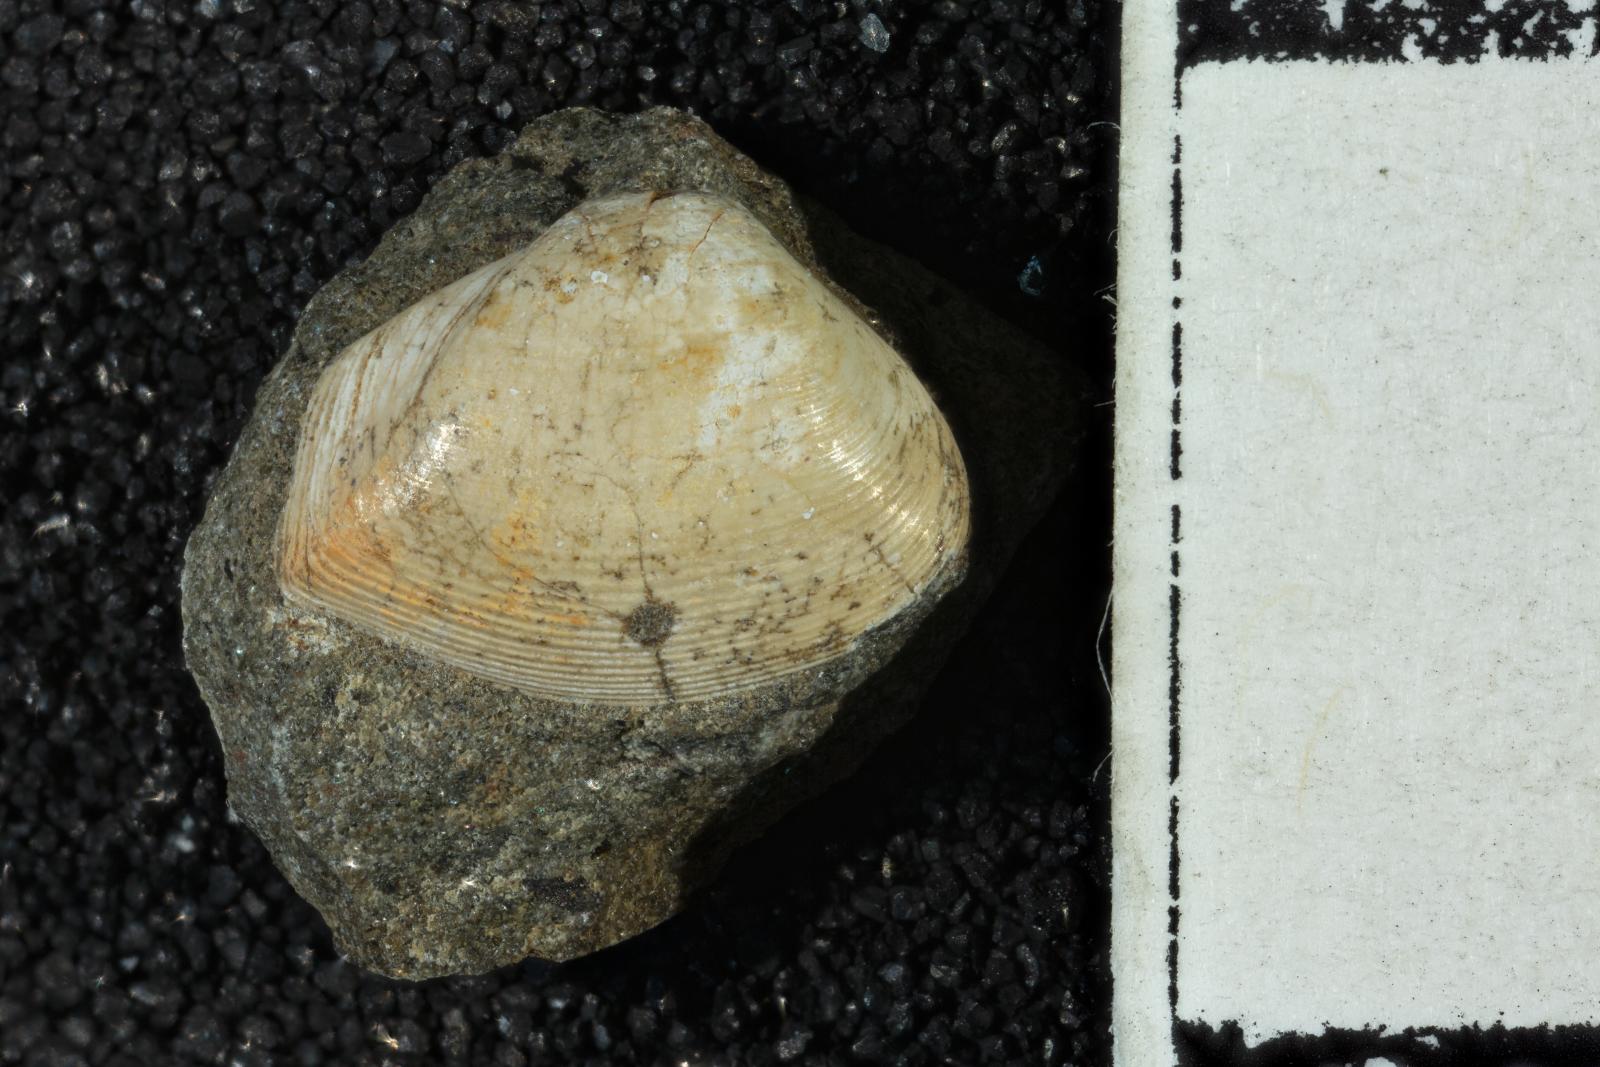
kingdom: Animalia
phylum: Mollusca
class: Bivalvia
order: Myida
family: Corbulidae
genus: Caryocorbula
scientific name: Caryocorbula vacca
